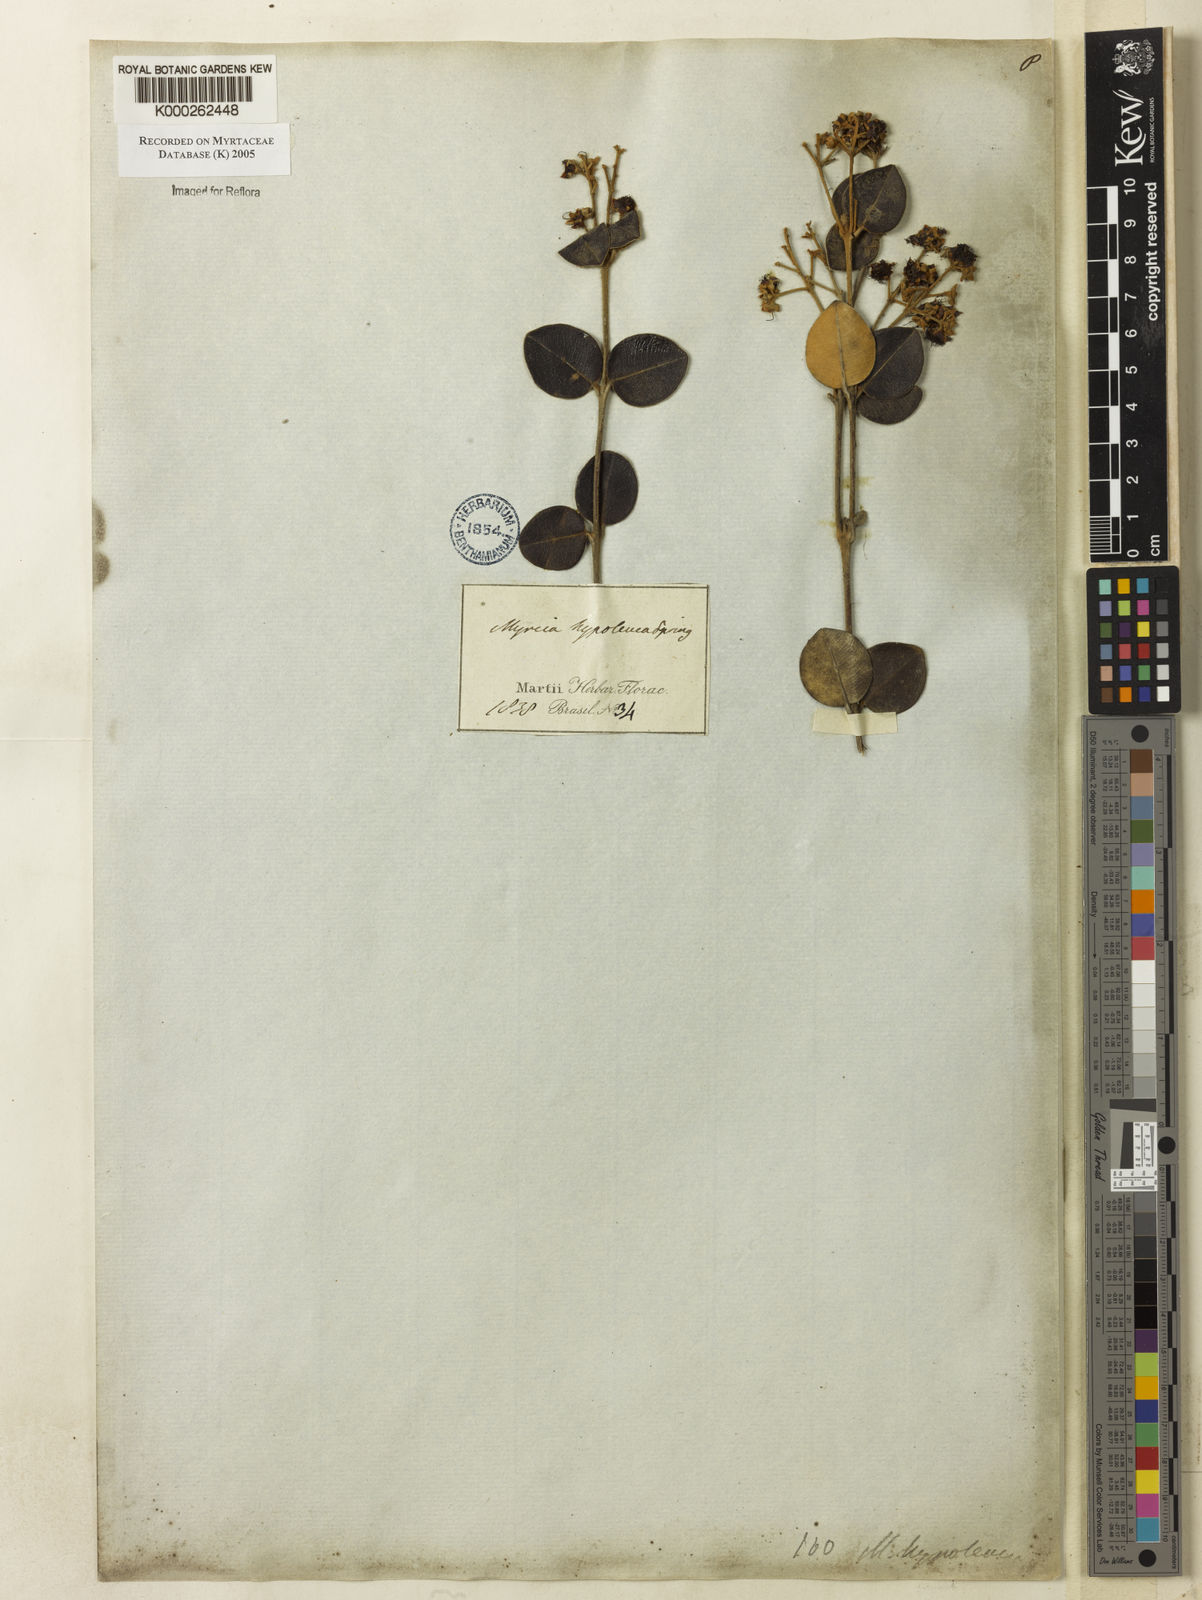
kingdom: Plantae
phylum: Tracheophyta
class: Magnoliopsida
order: Myrtales
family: Myrtaceae
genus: Myrcia
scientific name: Myrcia hypoleuca
